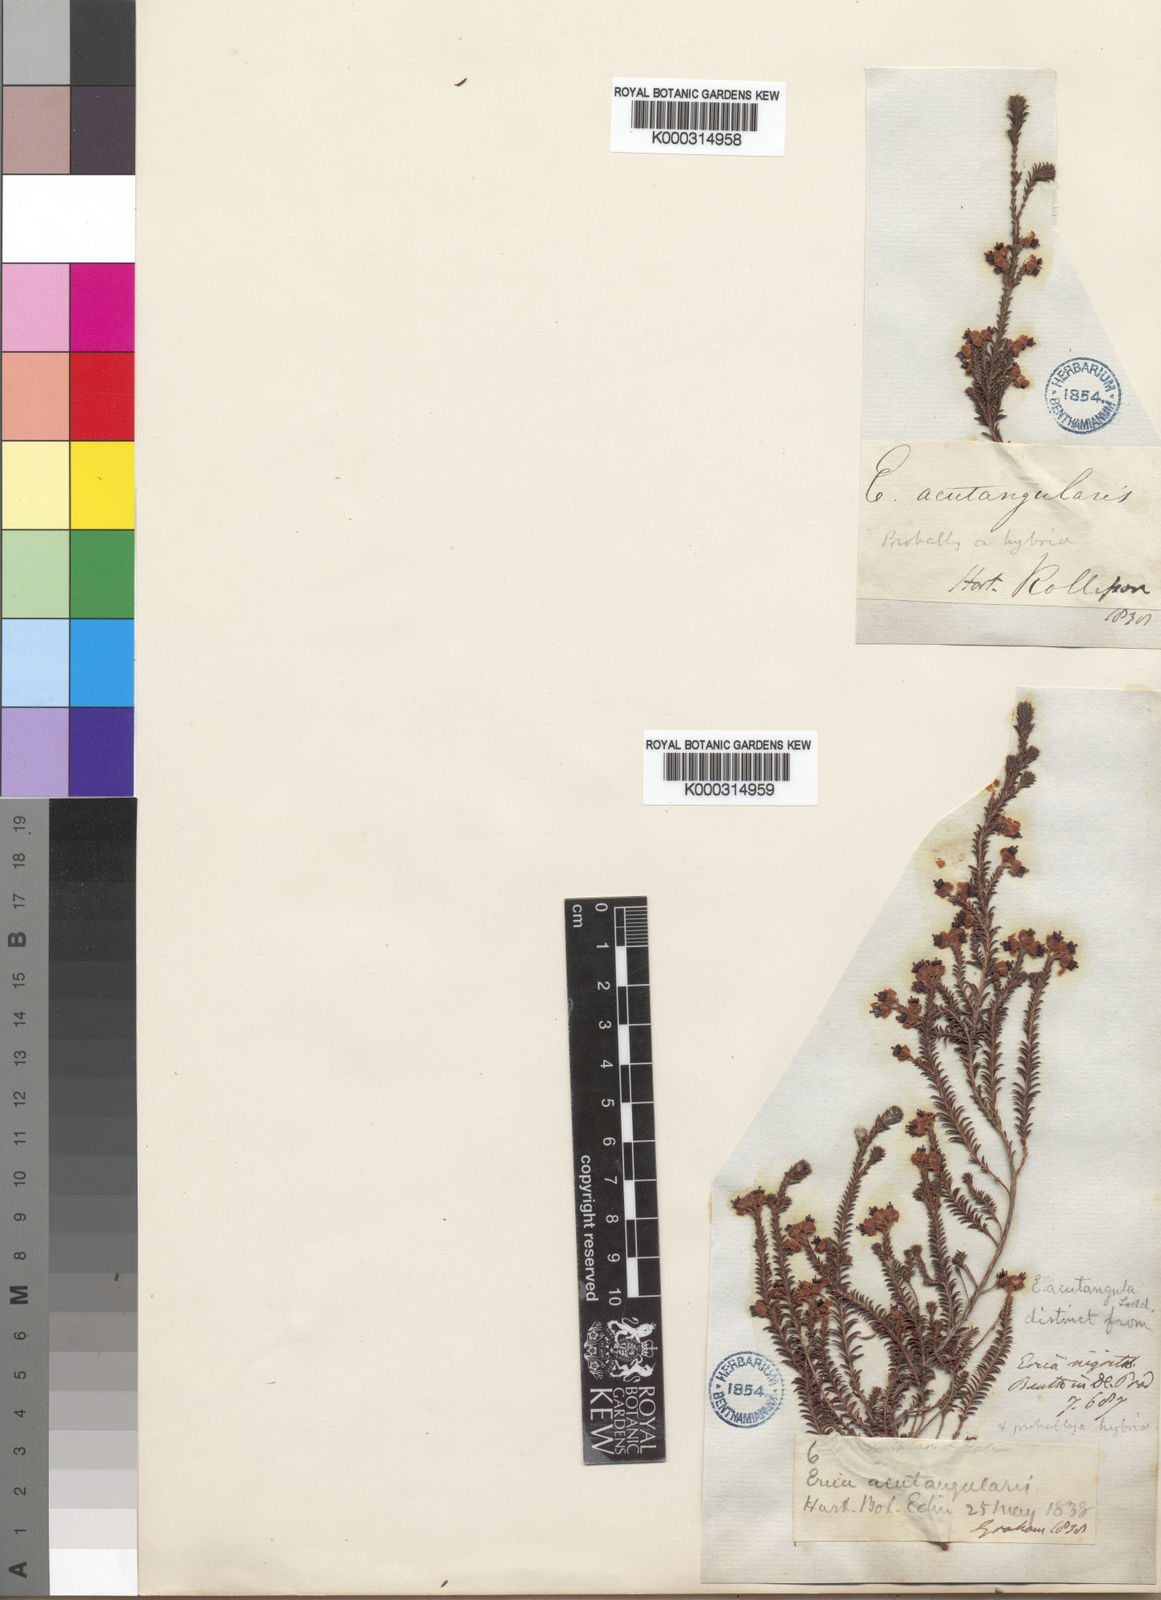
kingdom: Plantae
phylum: Tracheophyta
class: Magnoliopsida
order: Ericales
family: Ericaceae
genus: Erica
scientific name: Erica calycina
